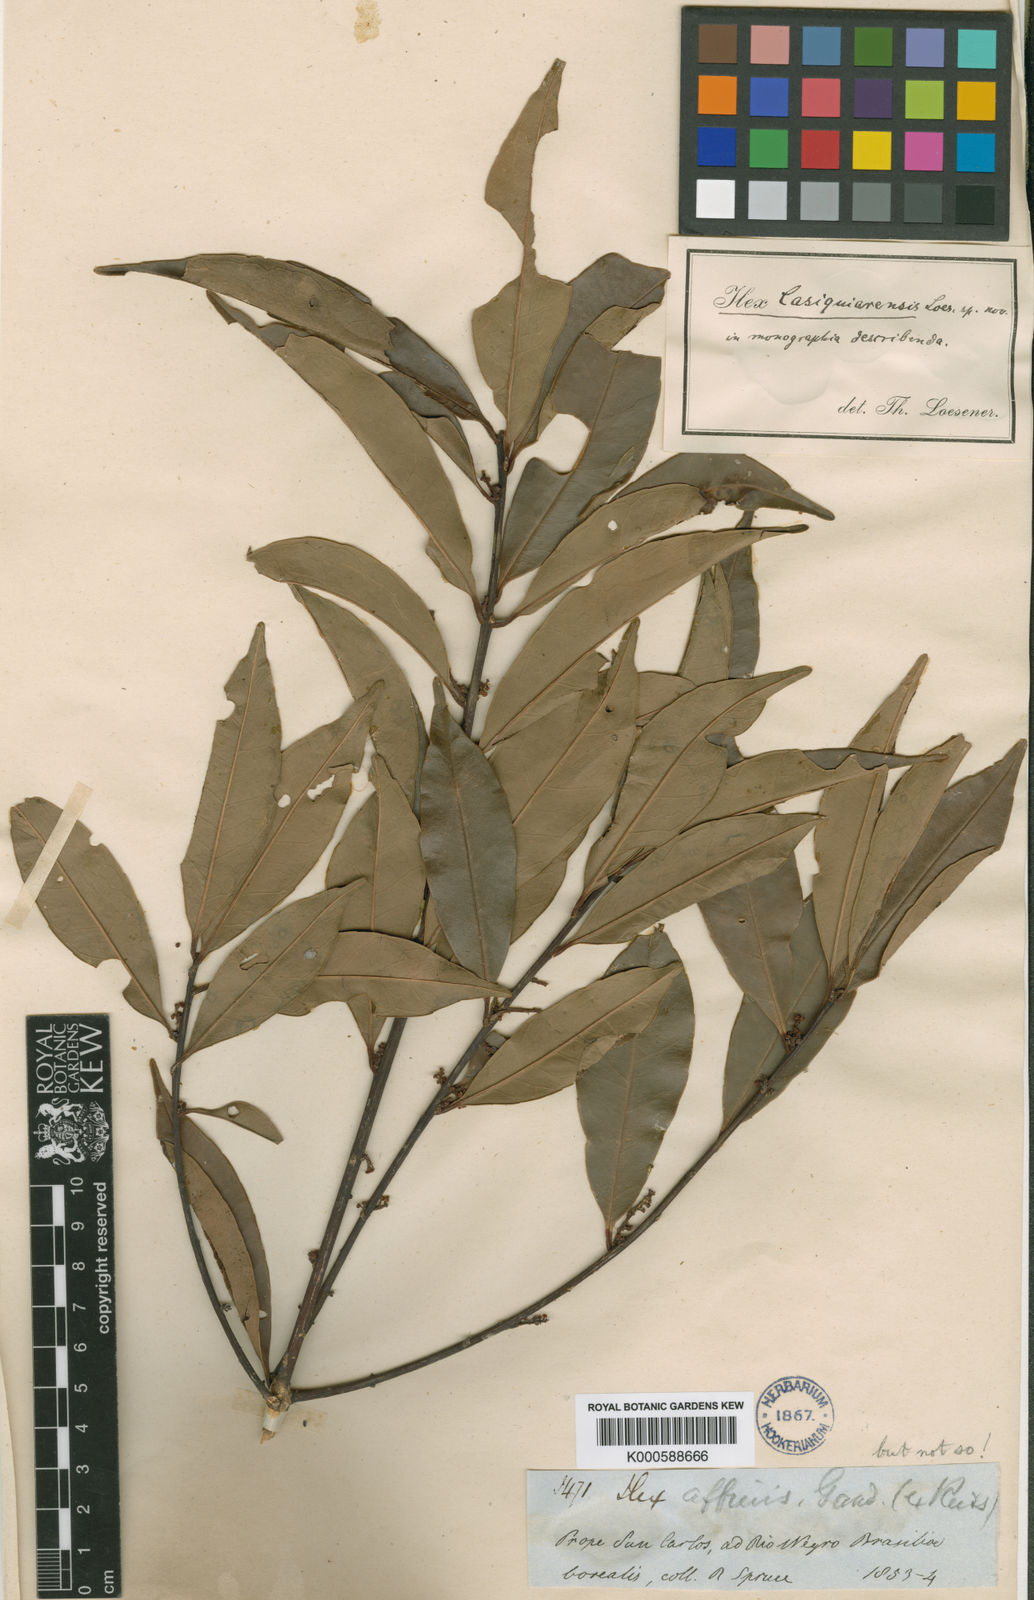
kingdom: Plantae
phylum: Tracheophyta
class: Magnoliopsida
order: Aquifoliales
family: Aquifoliaceae
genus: Ilex
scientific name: Ilex casiquiarensis
